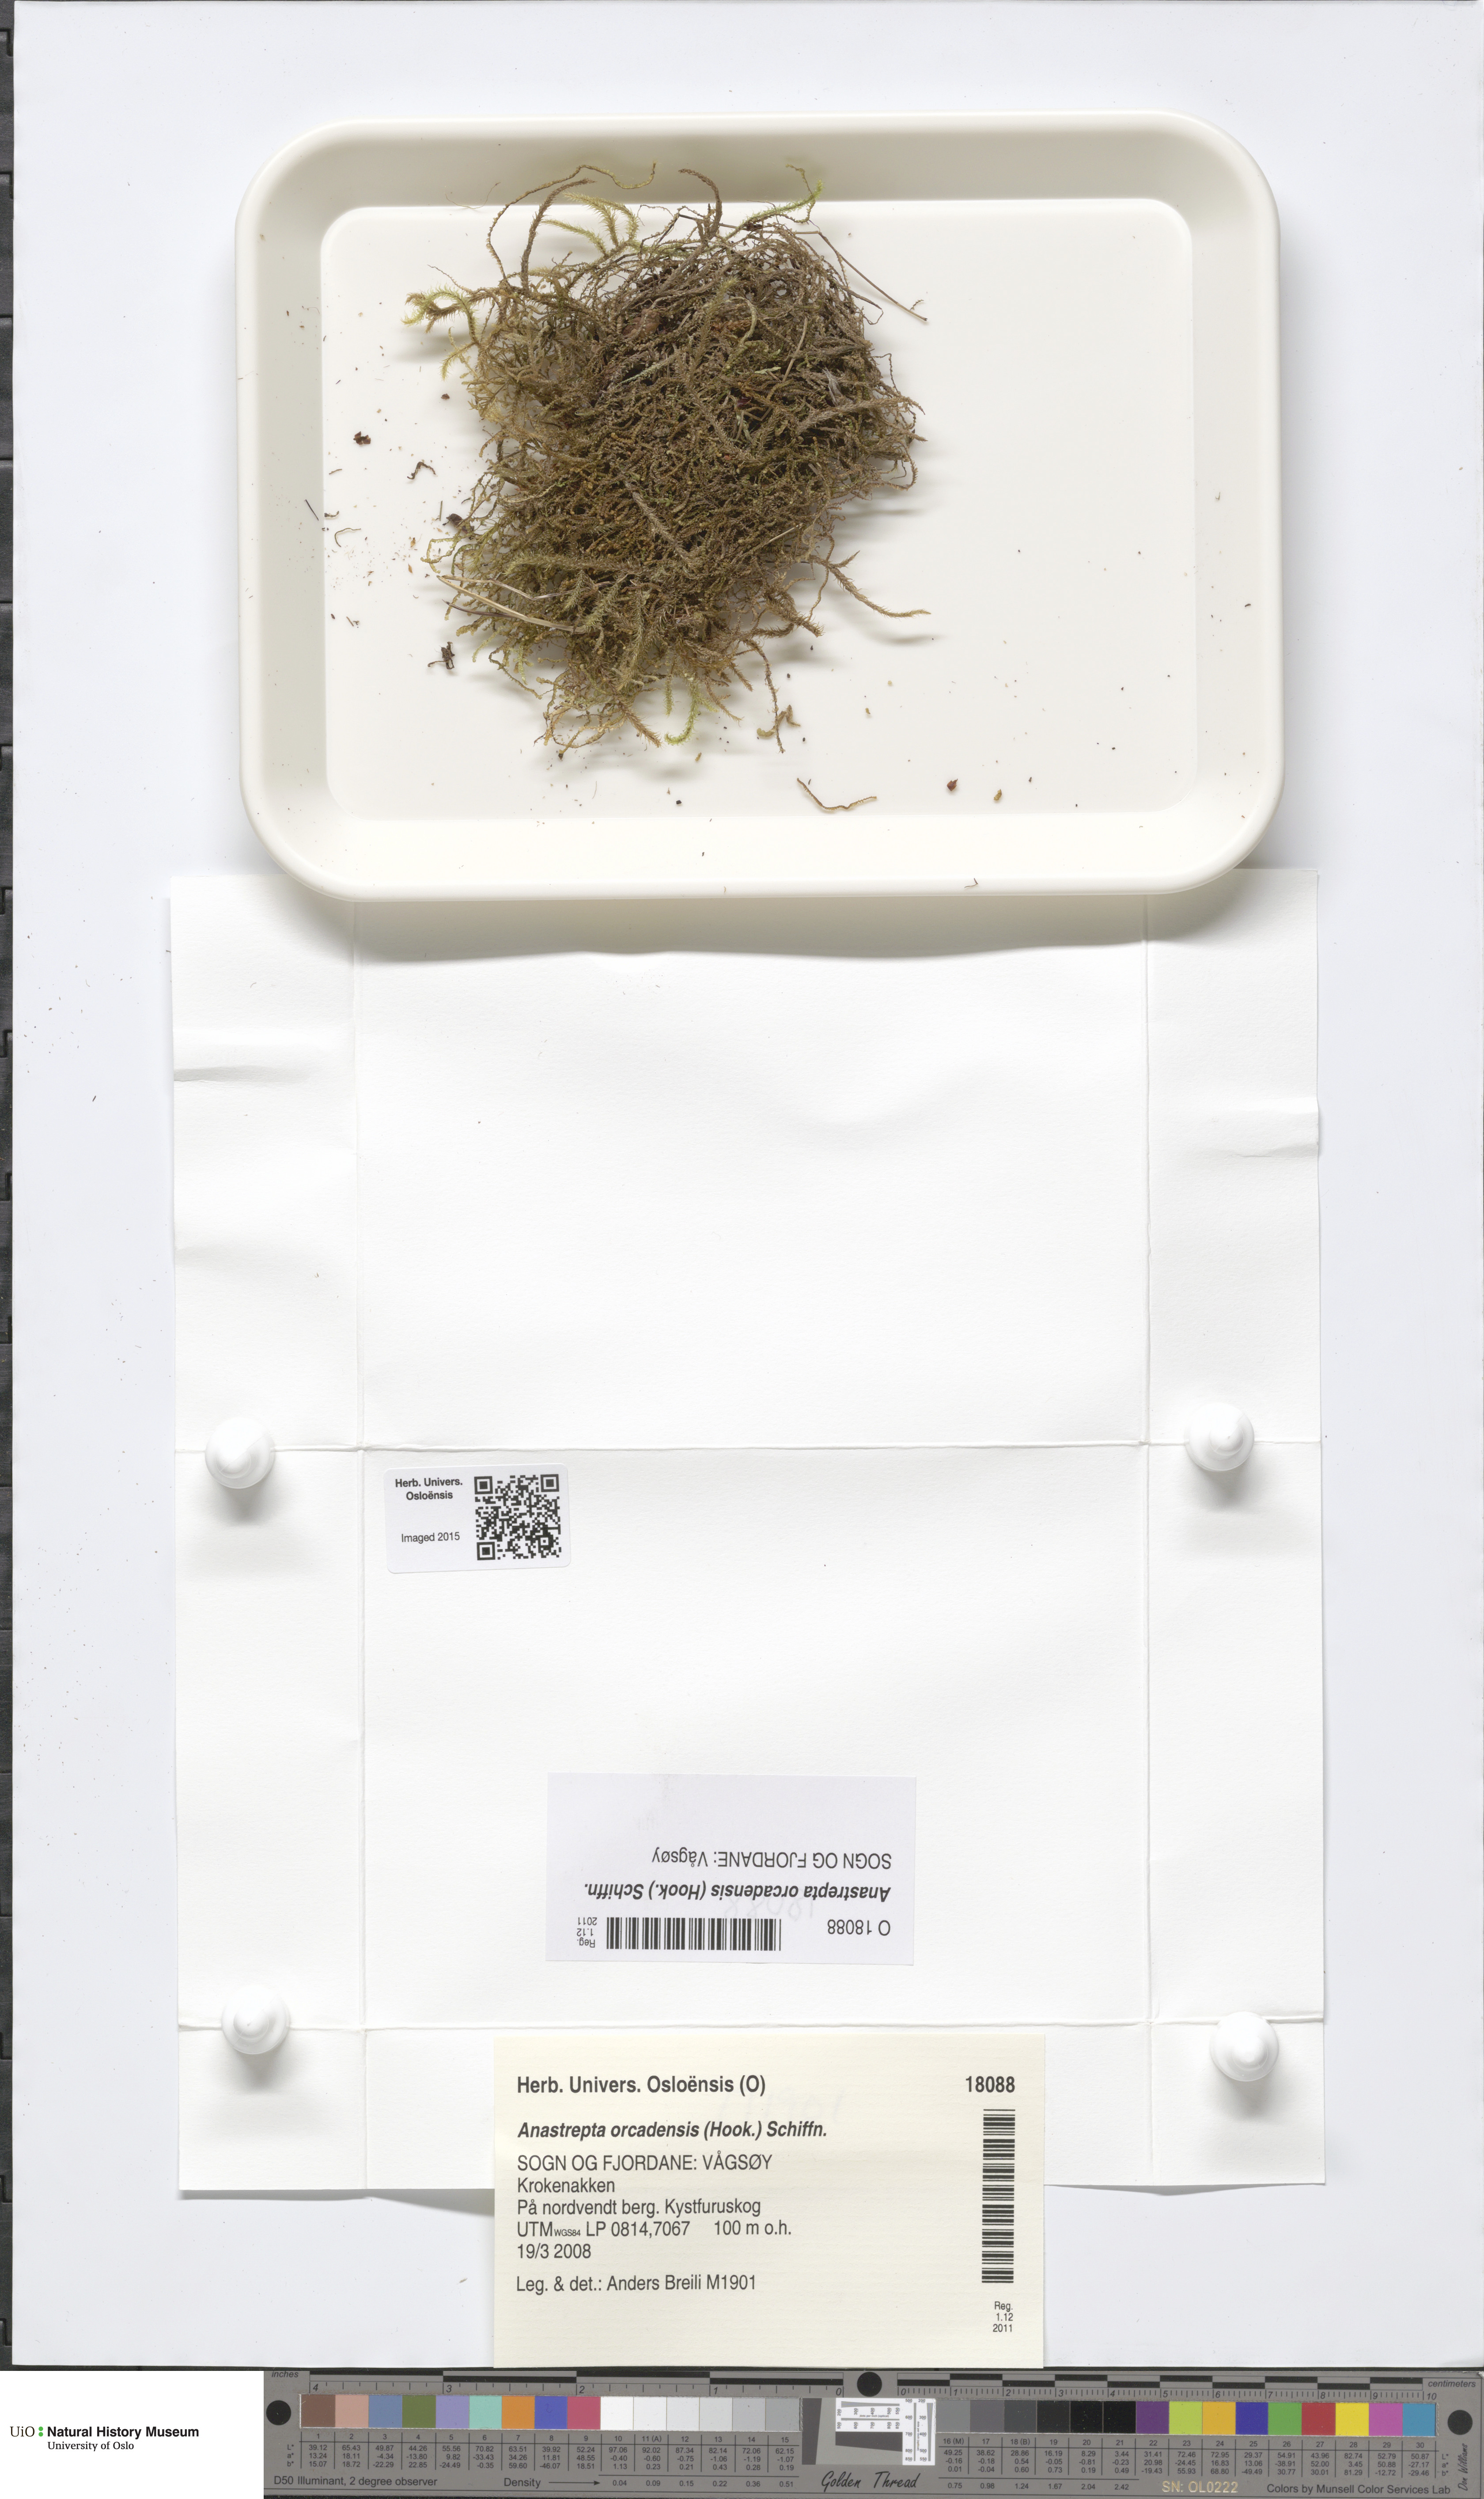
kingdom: Plantae
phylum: Marchantiophyta
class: Jungermanniopsida
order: Jungermanniales
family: Anastrophyllaceae
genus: Anastrepta
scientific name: Anastrepta orcadensis
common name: Orkney notchwort
